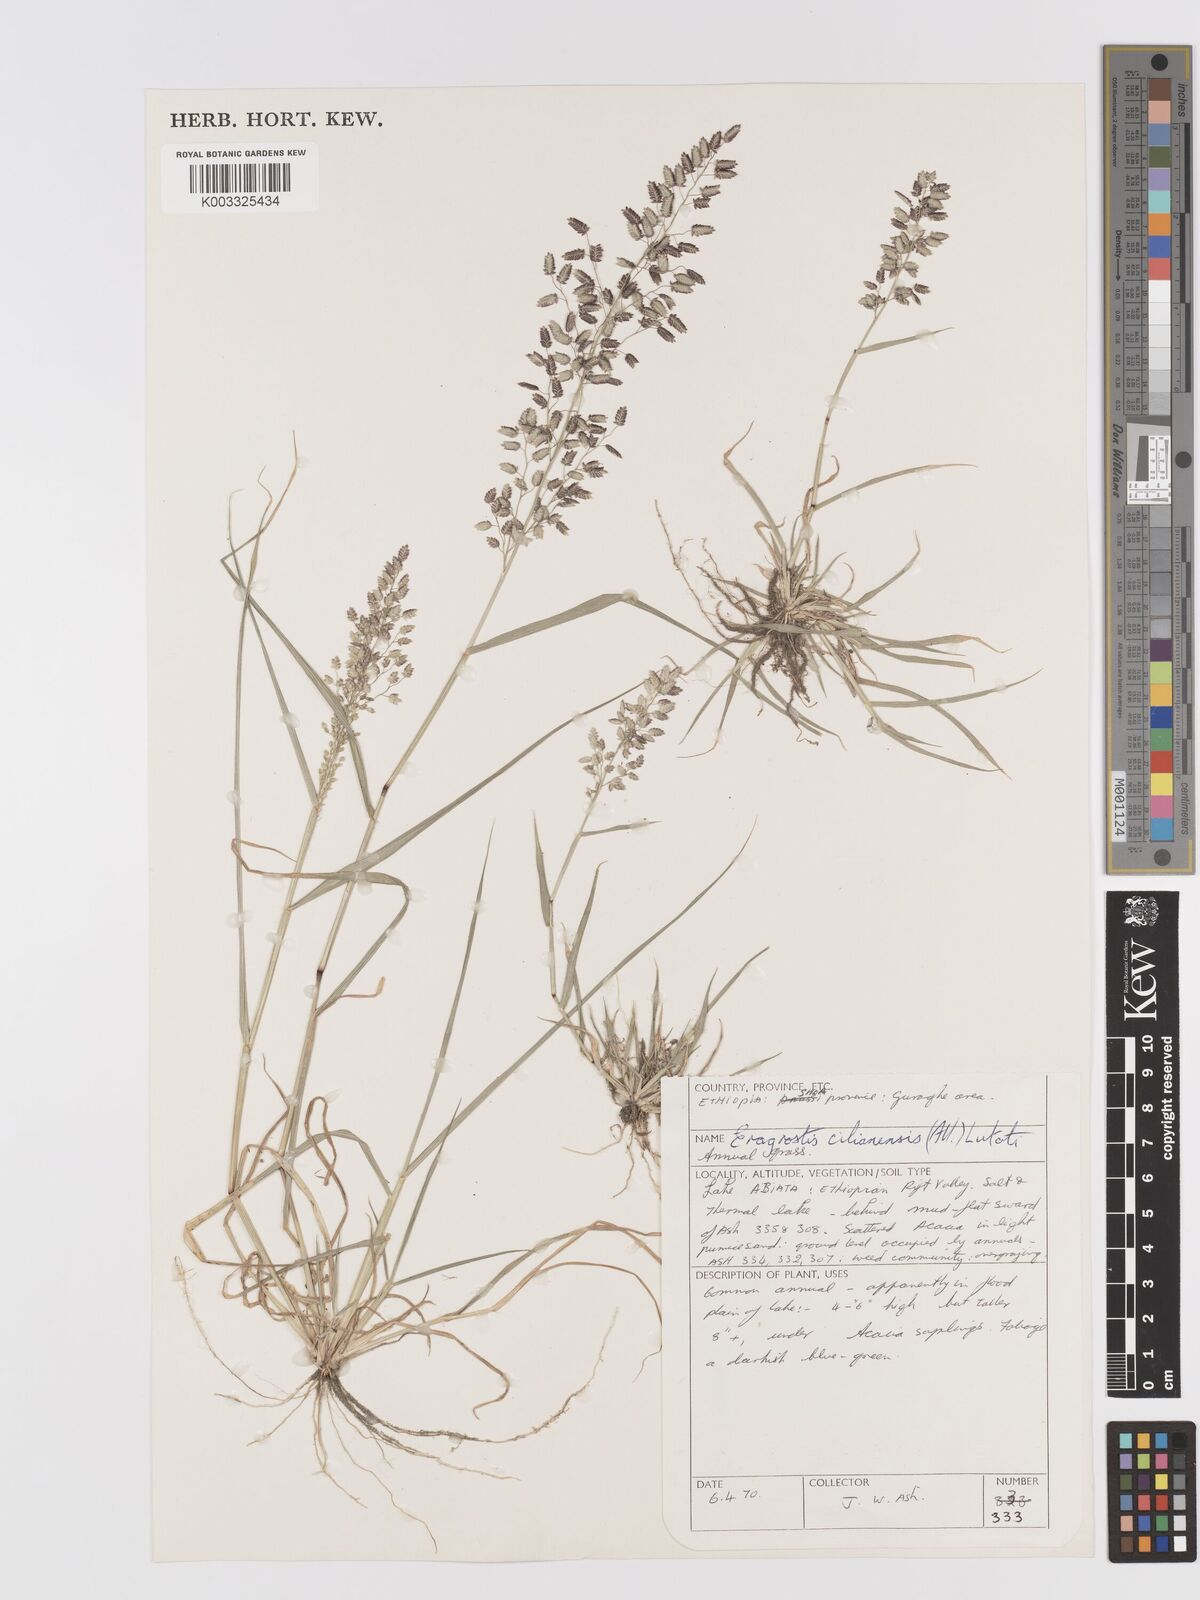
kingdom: Plantae
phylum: Tracheophyta
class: Liliopsida
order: Poales
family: Poaceae
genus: Eragrostis
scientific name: Eragrostis cilianensis
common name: Stinkgrass
